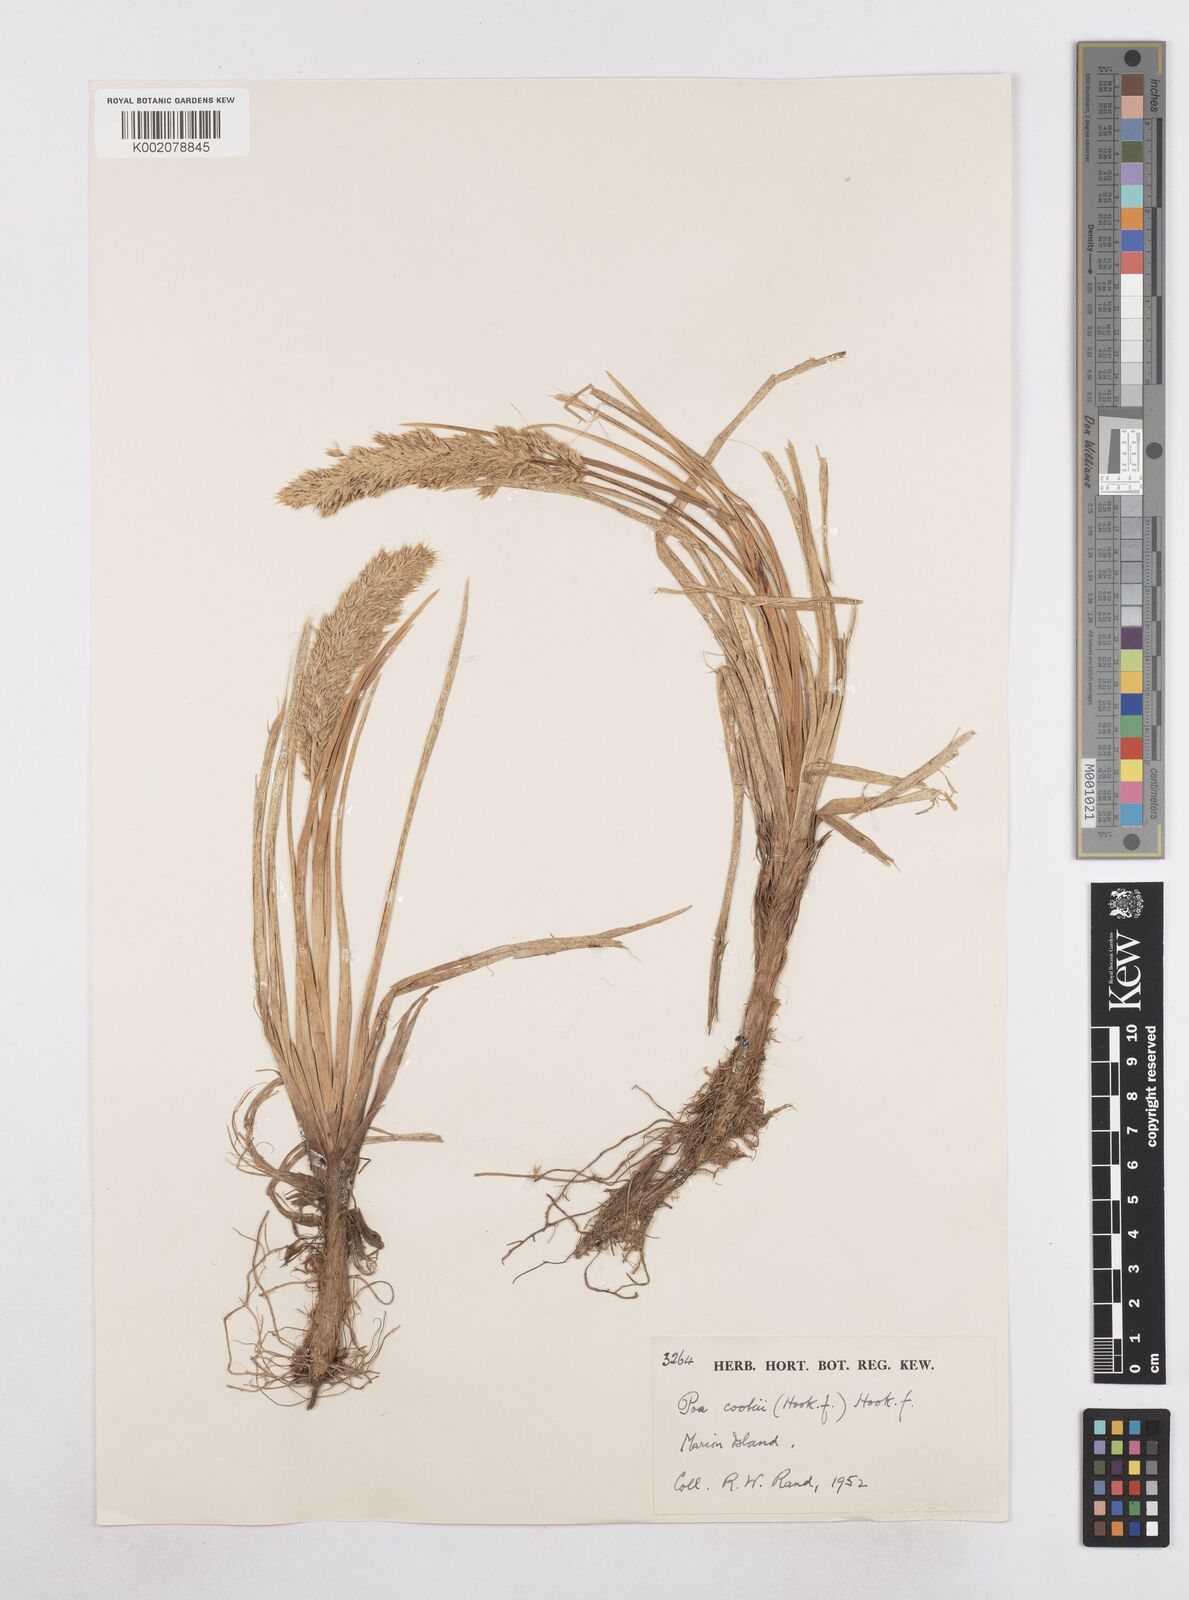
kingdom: Plantae
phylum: Tracheophyta
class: Liliopsida
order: Poales
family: Poaceae
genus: Poa
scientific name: Poa cookii
